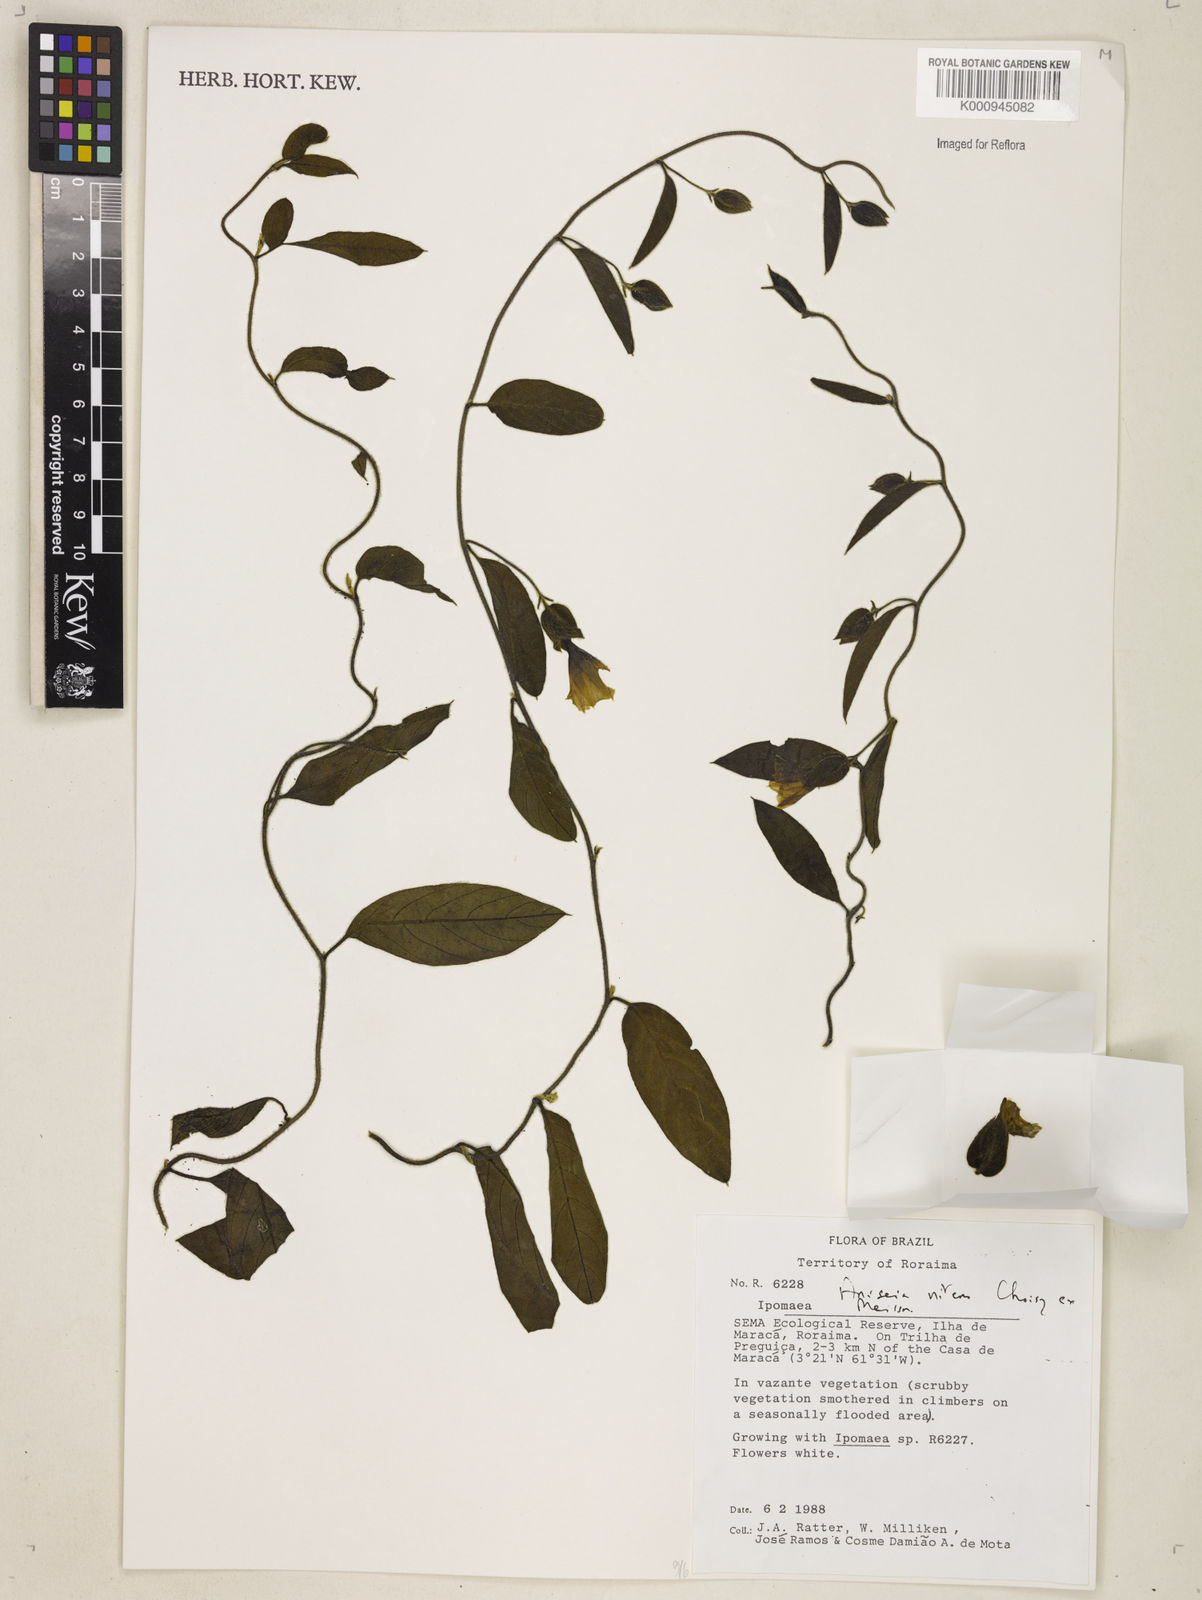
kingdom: Plantae
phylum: Tracheophyta
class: Magnoliopsida
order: Solanales
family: Convolvulaceae
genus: Aniseia
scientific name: Aniseia martinicensis
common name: Kulayadambu
